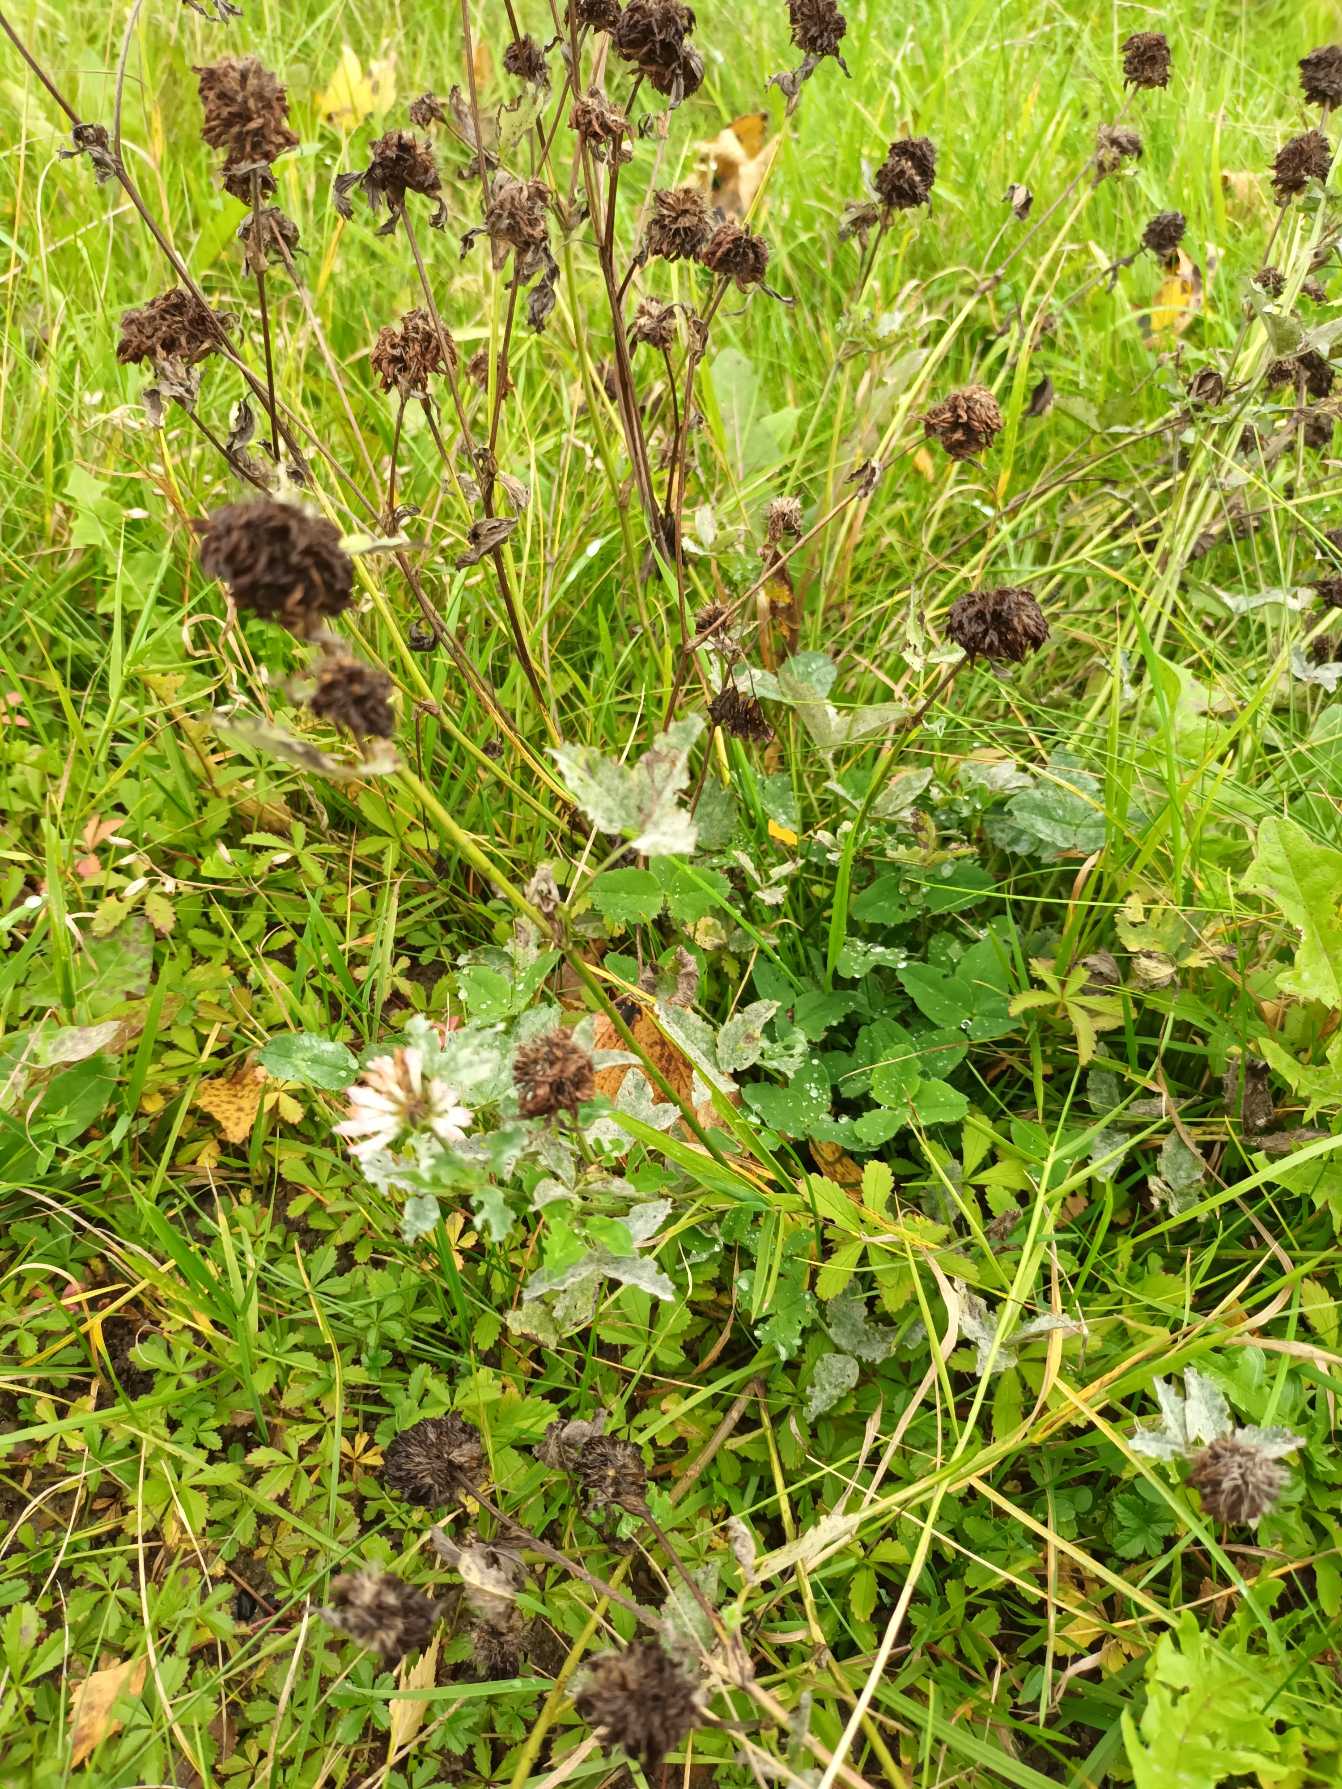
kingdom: Plantae
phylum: Tracheophyta
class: Magnoliopsida
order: Fabales
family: Fabaceae
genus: Trifolium
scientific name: Trifolium pratense
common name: Rød-kløver
